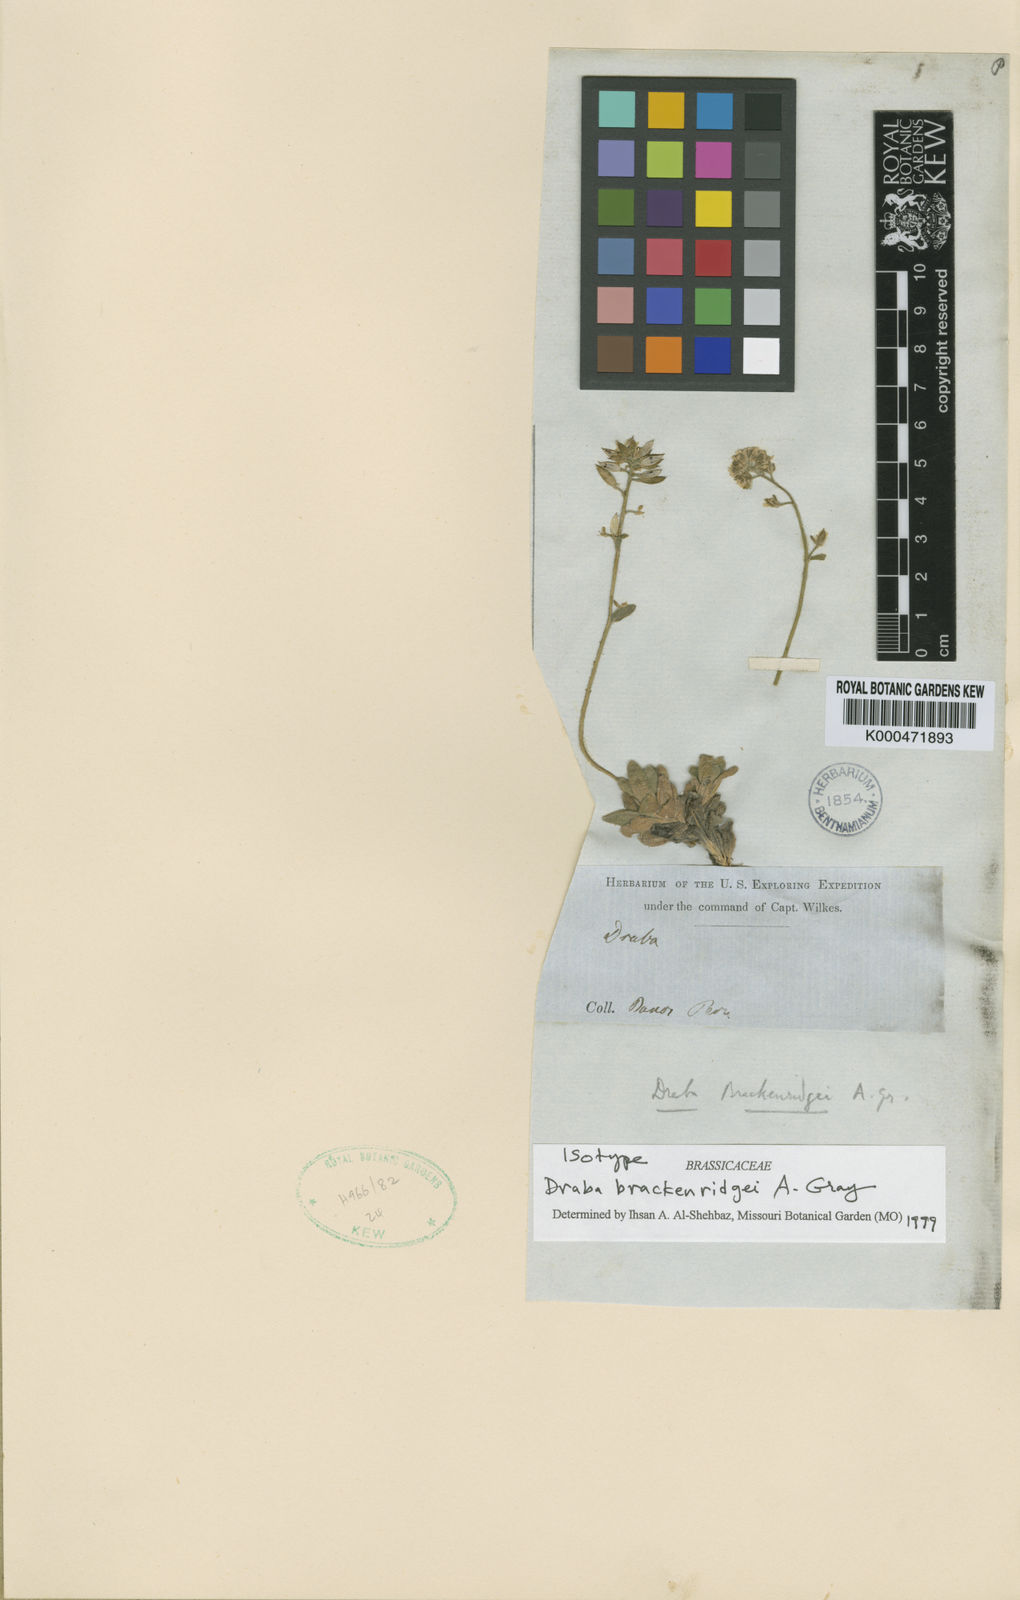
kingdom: Plantae
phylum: Tracheophyta
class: Magnoliopsida
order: Brassicales
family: Brassicaceae
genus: Draba
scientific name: Draba brackenridgei
